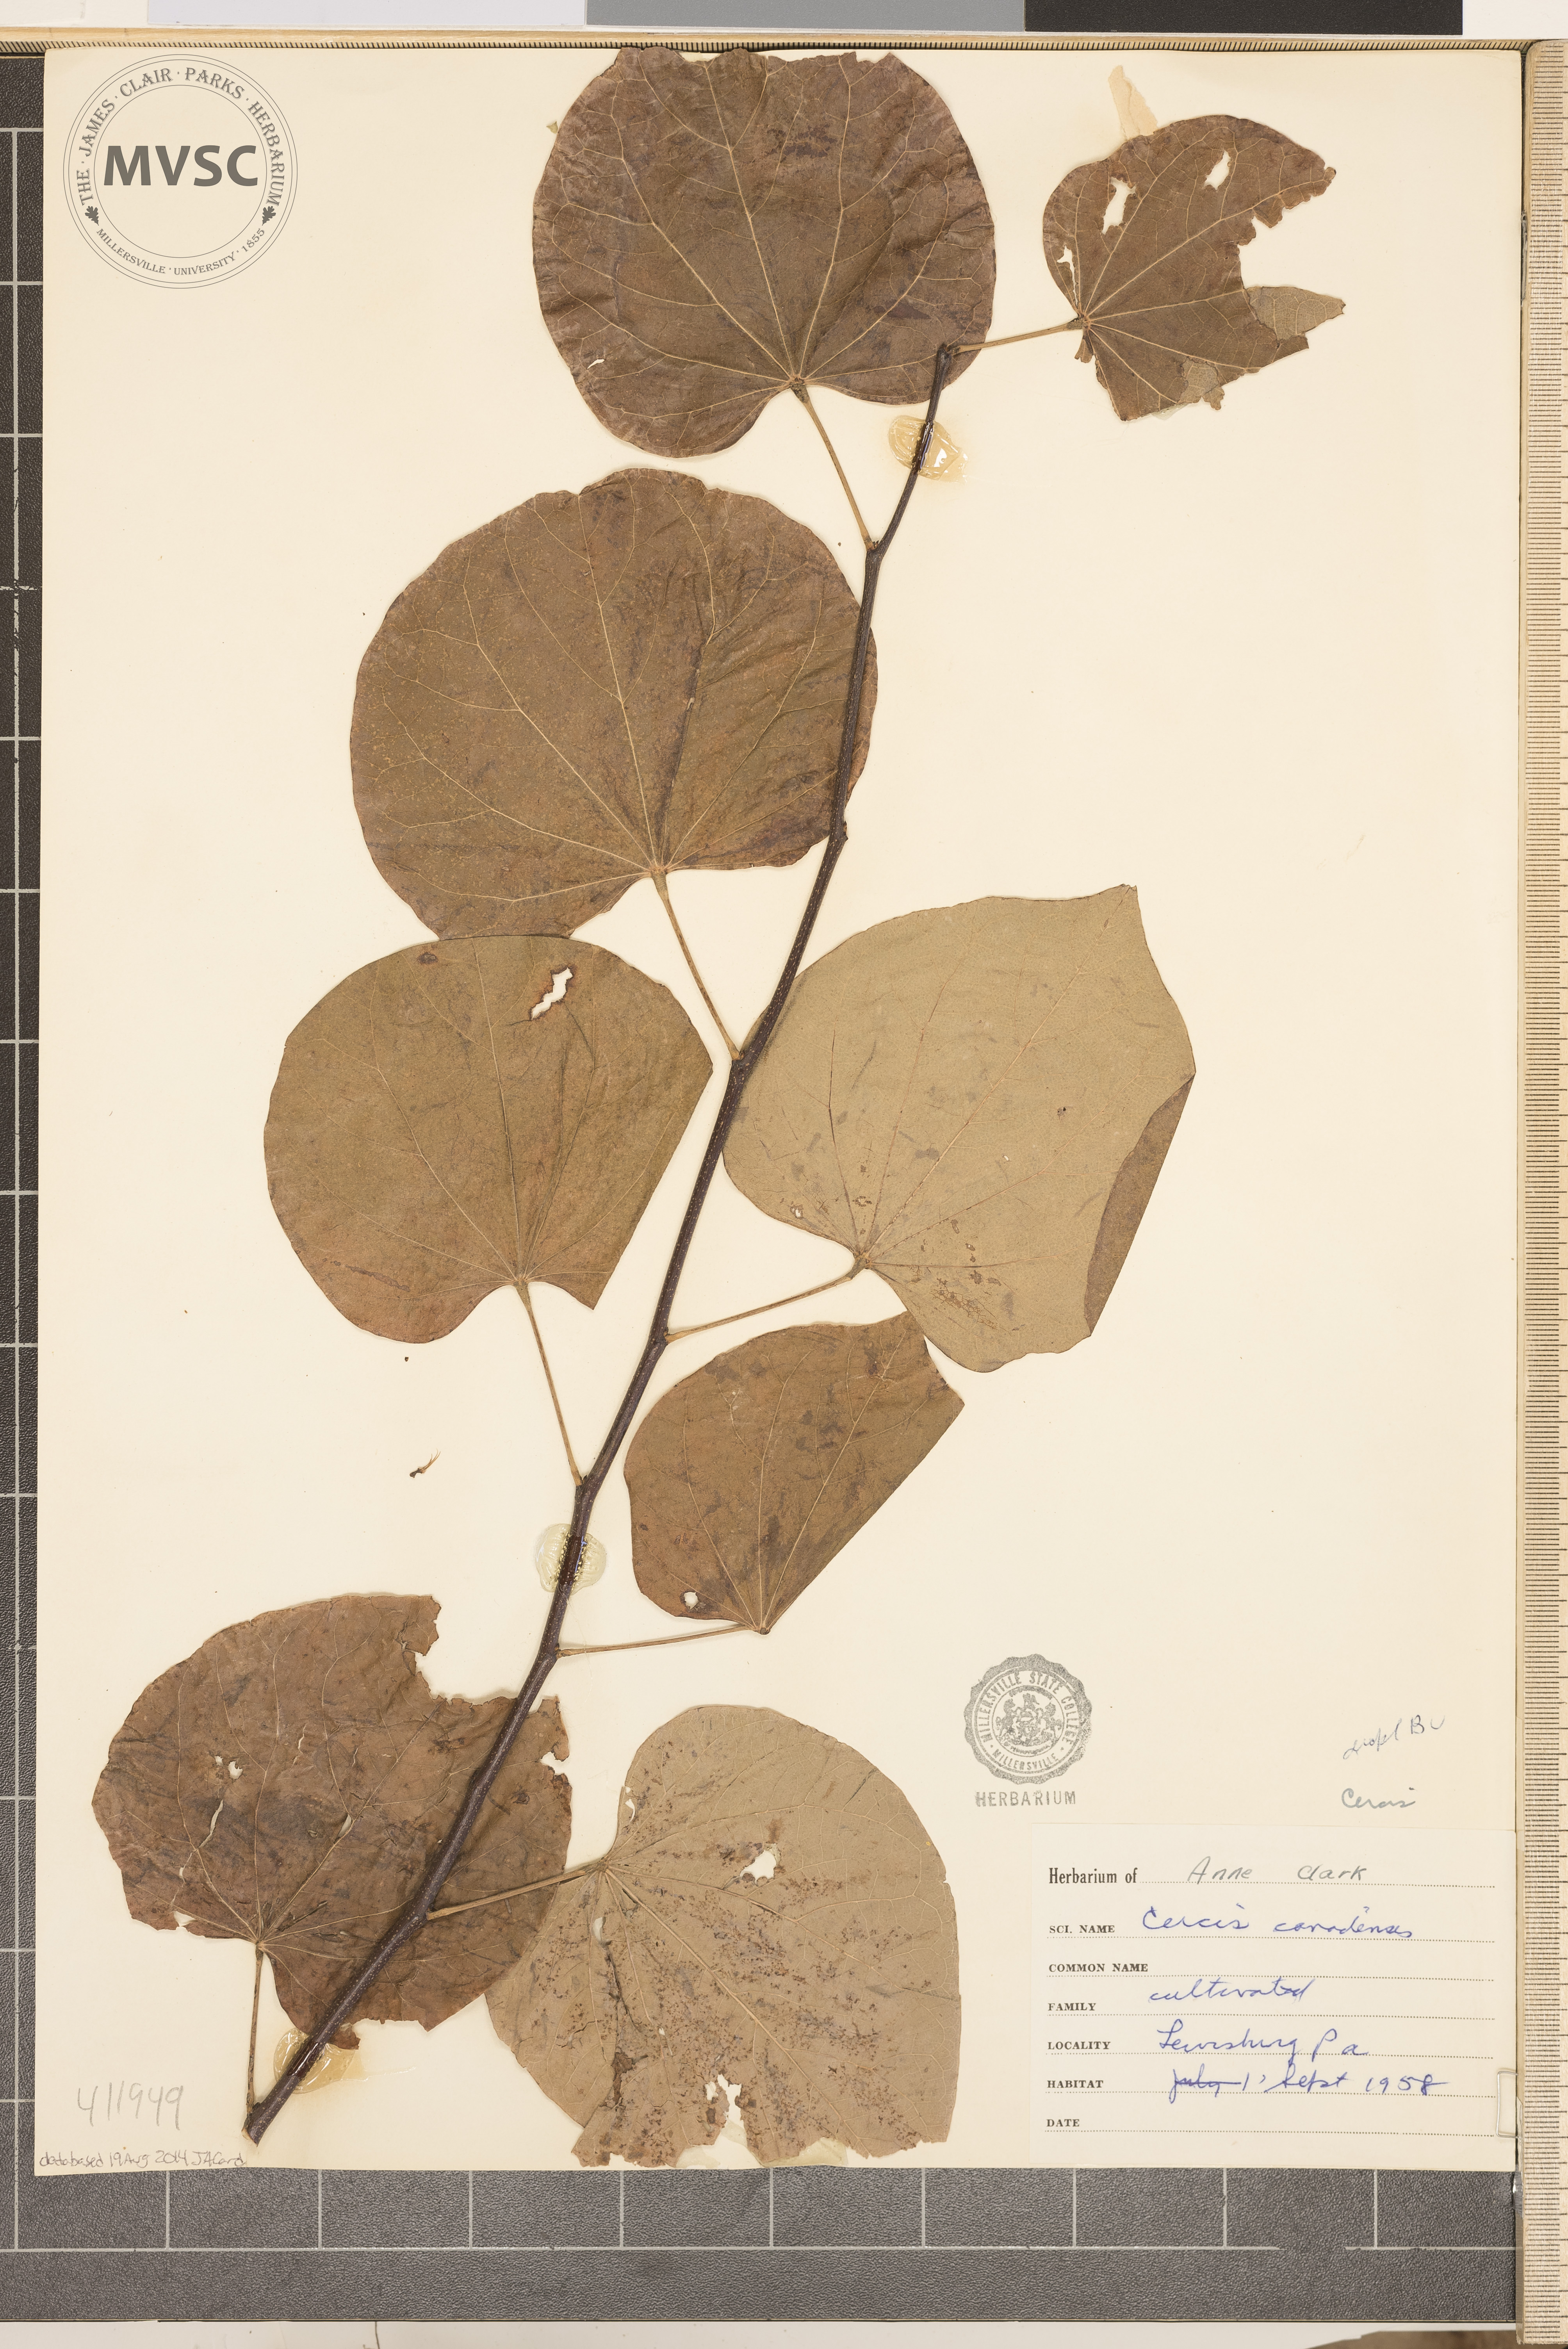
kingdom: Plantae
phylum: Tracheophyta
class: Magnoliopsida
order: Fabales
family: Fabaceae
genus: Cercis
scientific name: Cercis canadensis
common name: Eastern redbud
